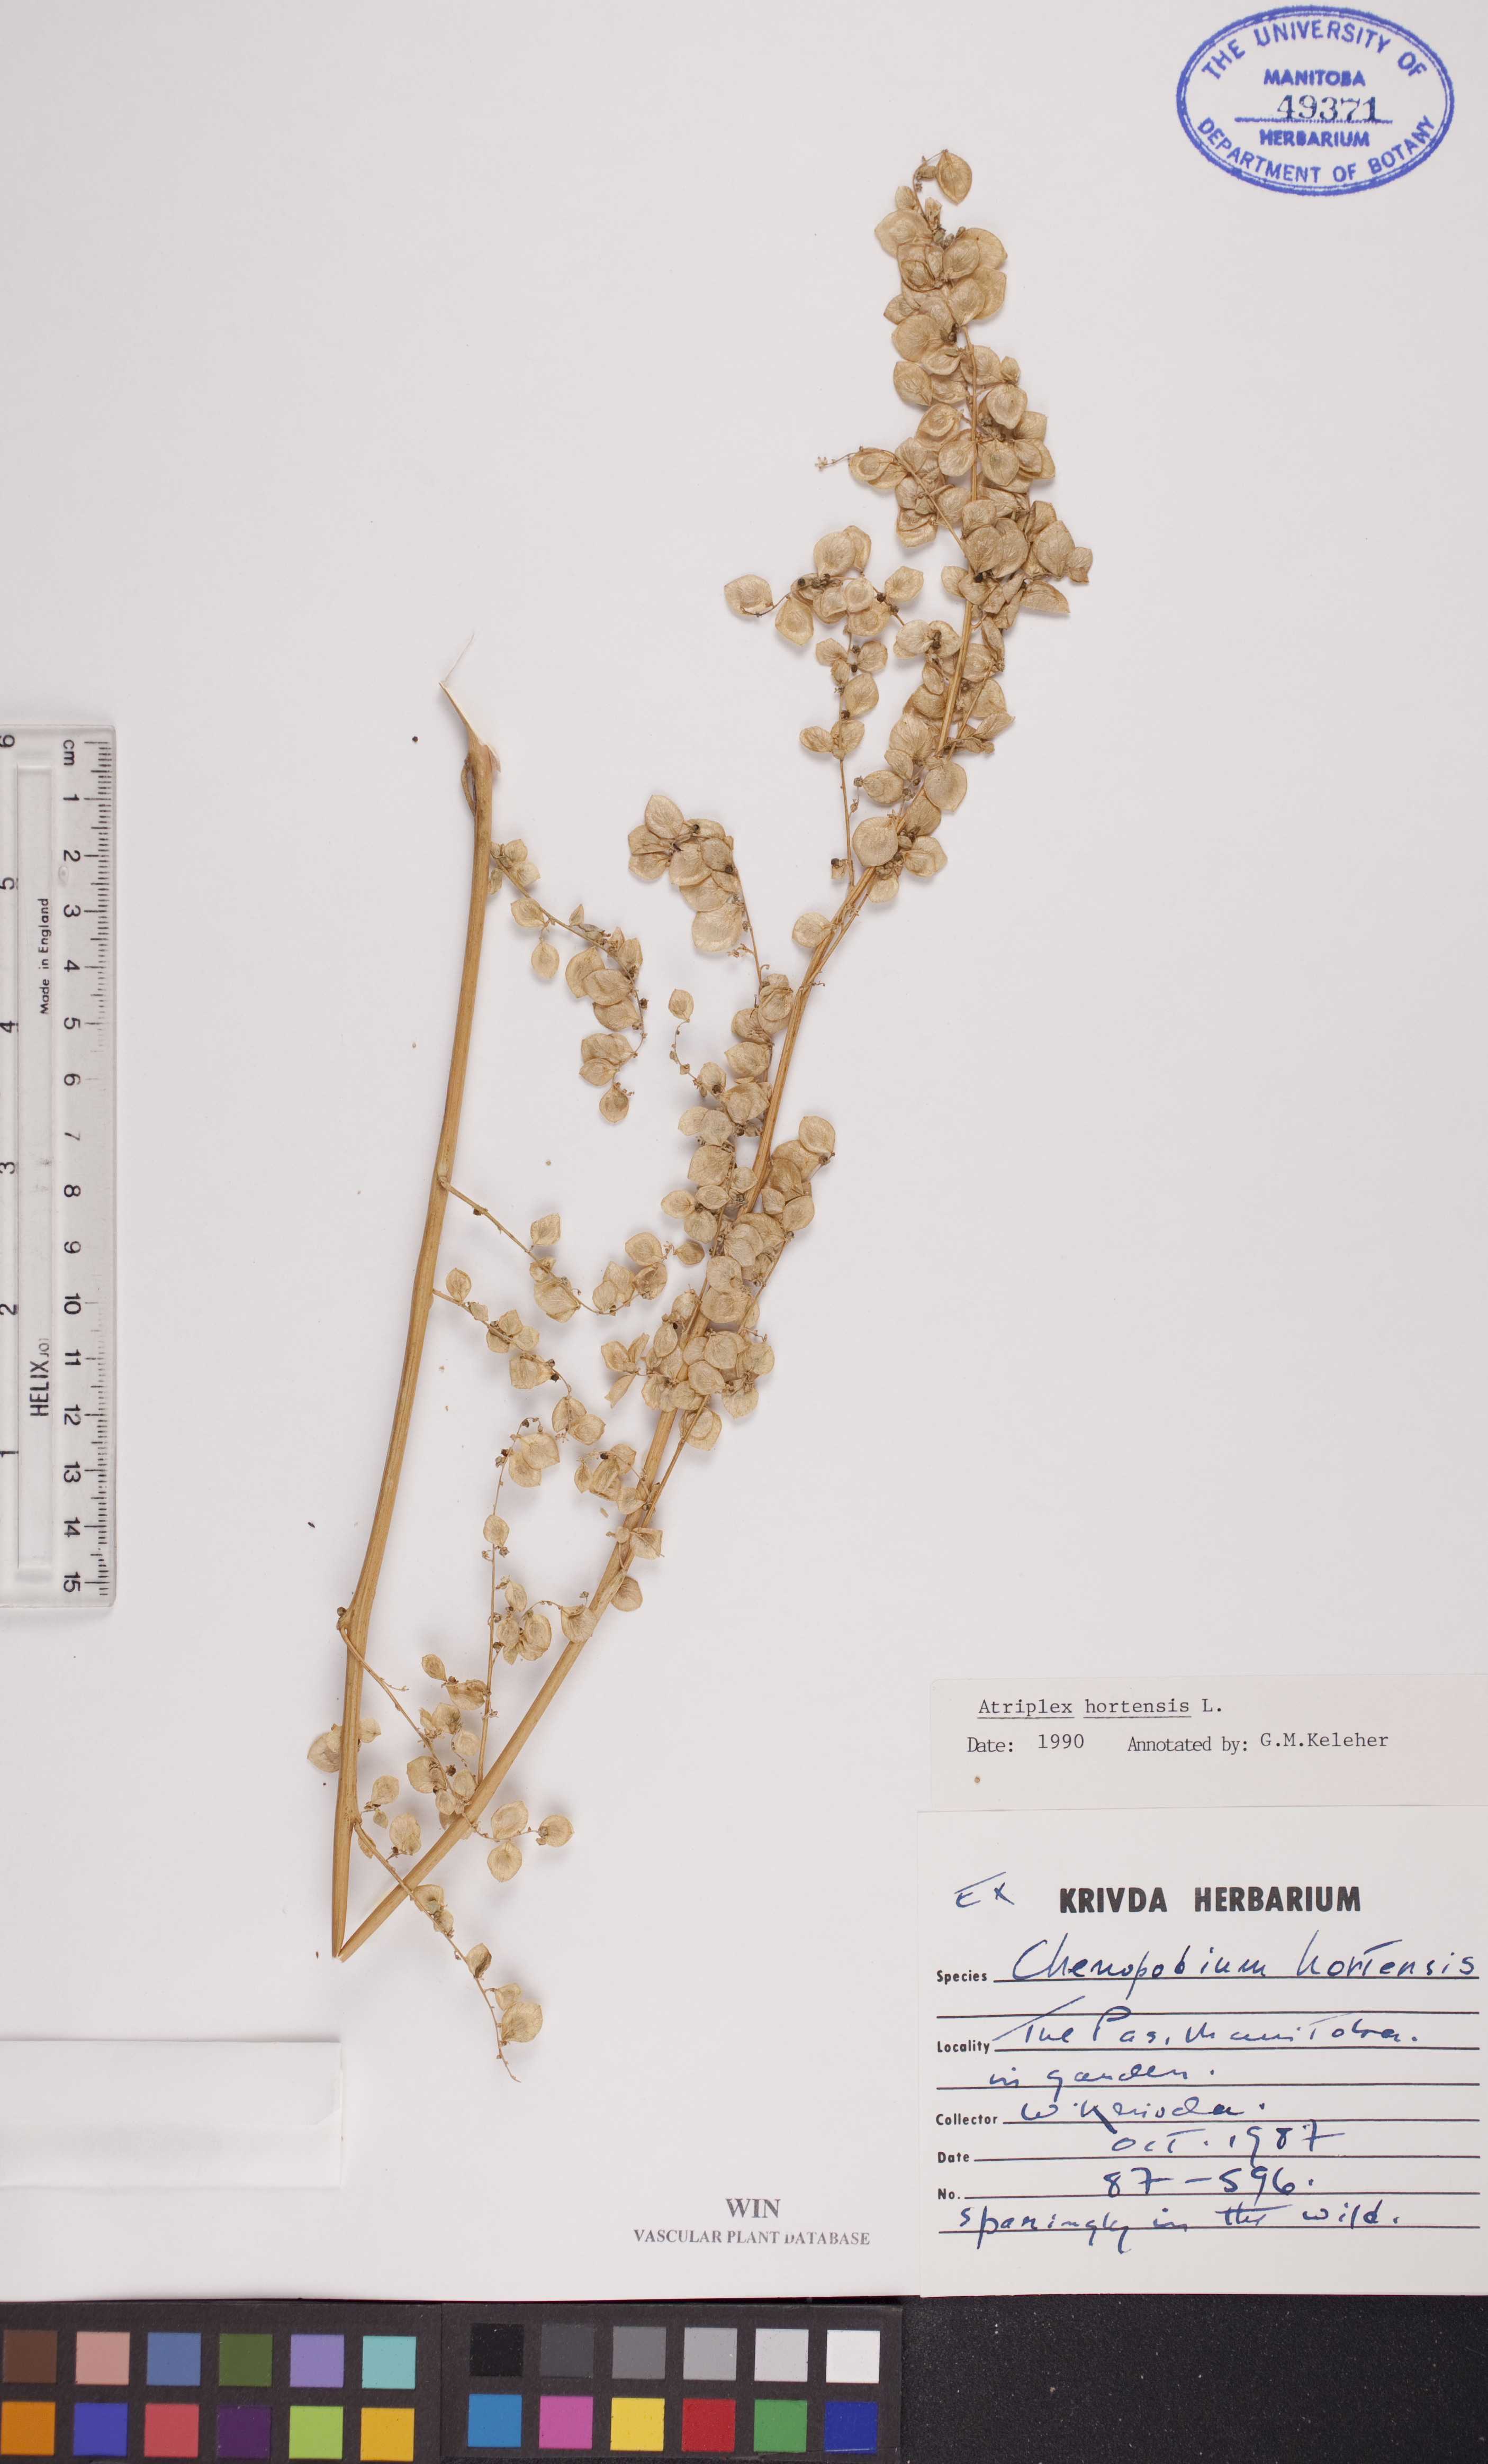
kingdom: Plantae
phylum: Tracheophyta
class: Magnoliopsida
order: Caryophyllales
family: Amaranthaceae
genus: Atriplex
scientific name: Atriplex hortensis
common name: Garden orache
